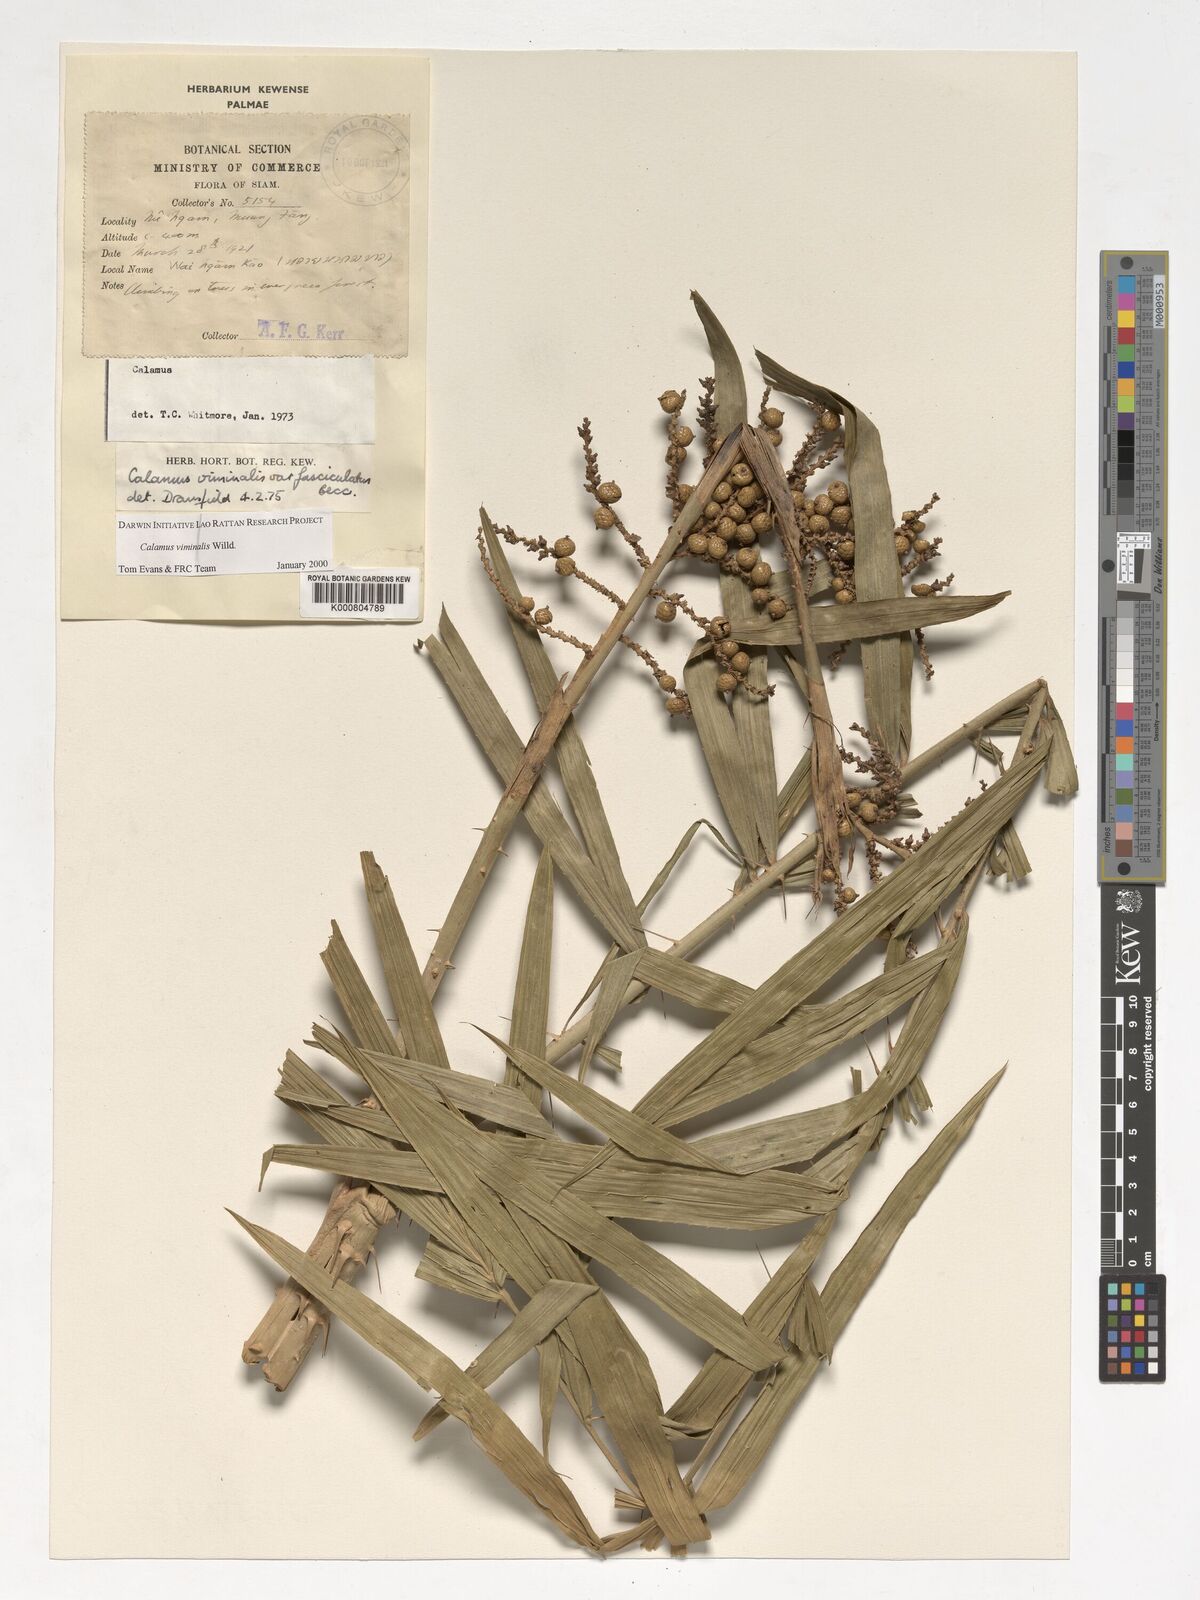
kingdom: Plantae
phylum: Tracheophyta
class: Liliopsida
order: Arecales
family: Arecaceae
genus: Calamus
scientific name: Calamus viminalis
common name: Osier-like rattan palm
